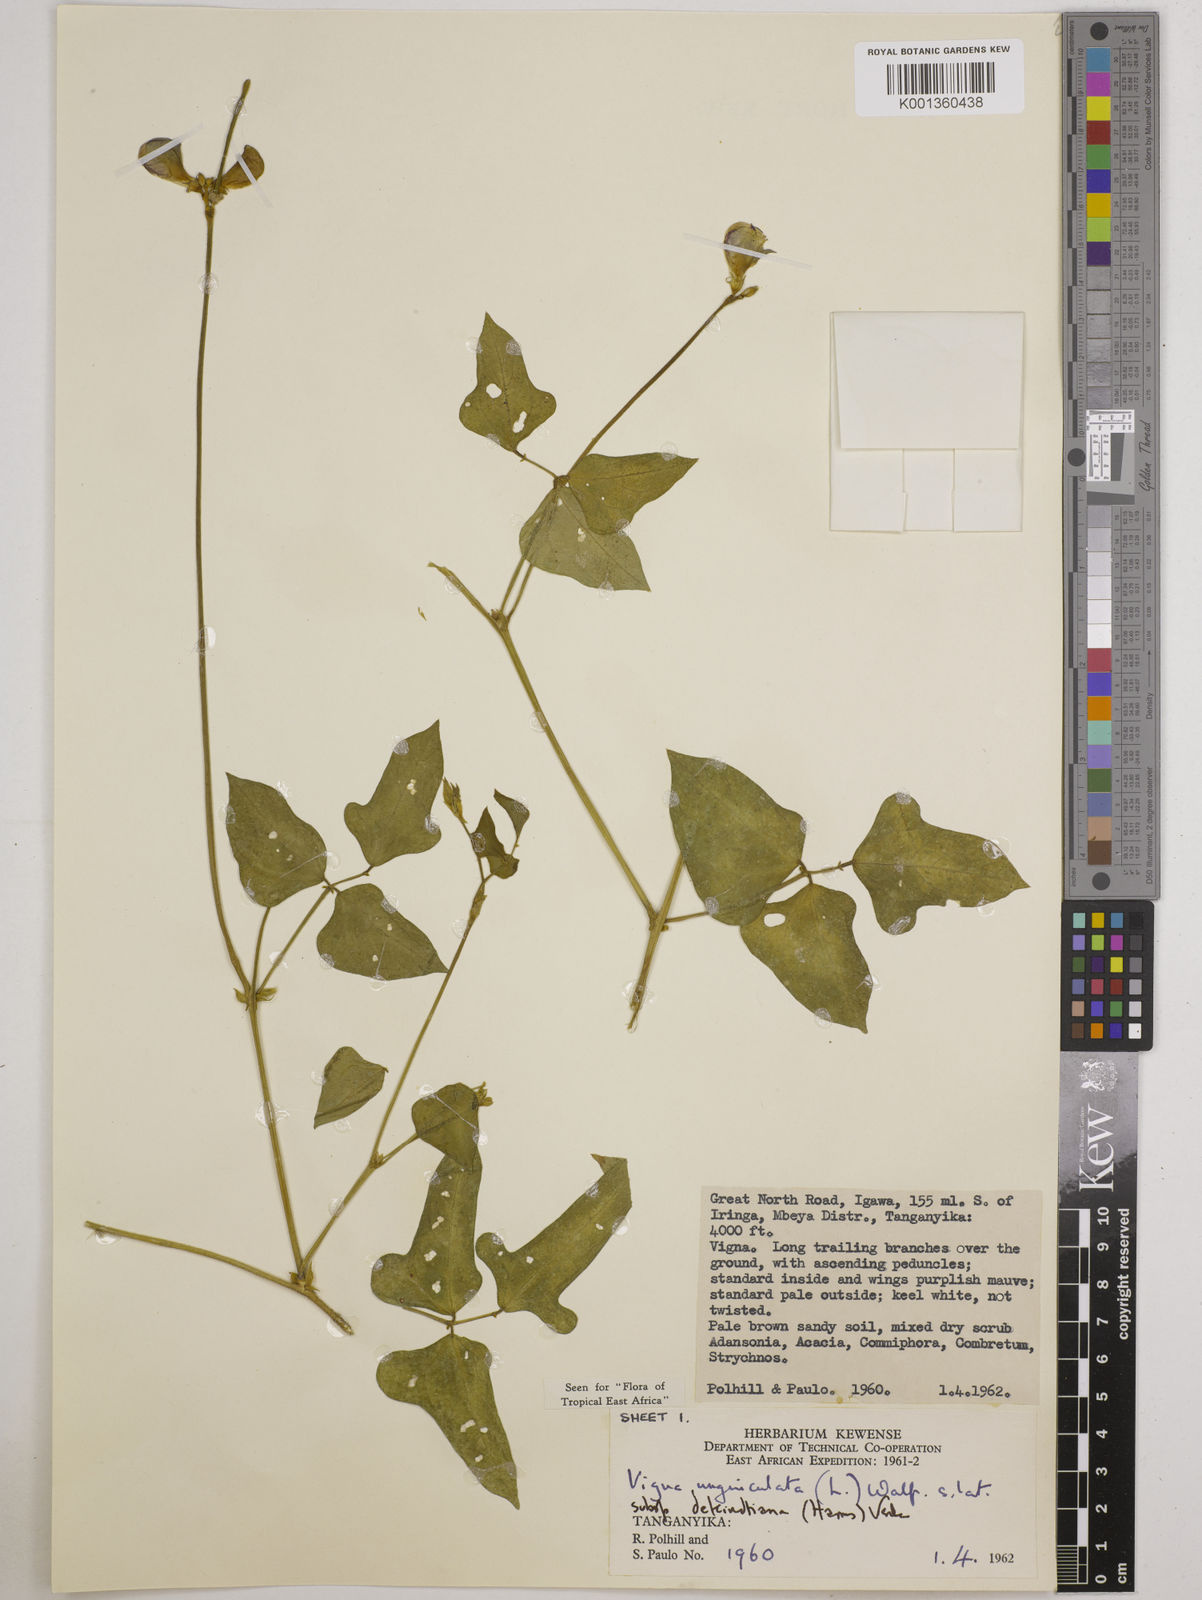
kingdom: Plantae
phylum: Tracheophyta
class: Magnoliopsida
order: Fabales
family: Fabaceae
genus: Vigna
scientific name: Vigna
